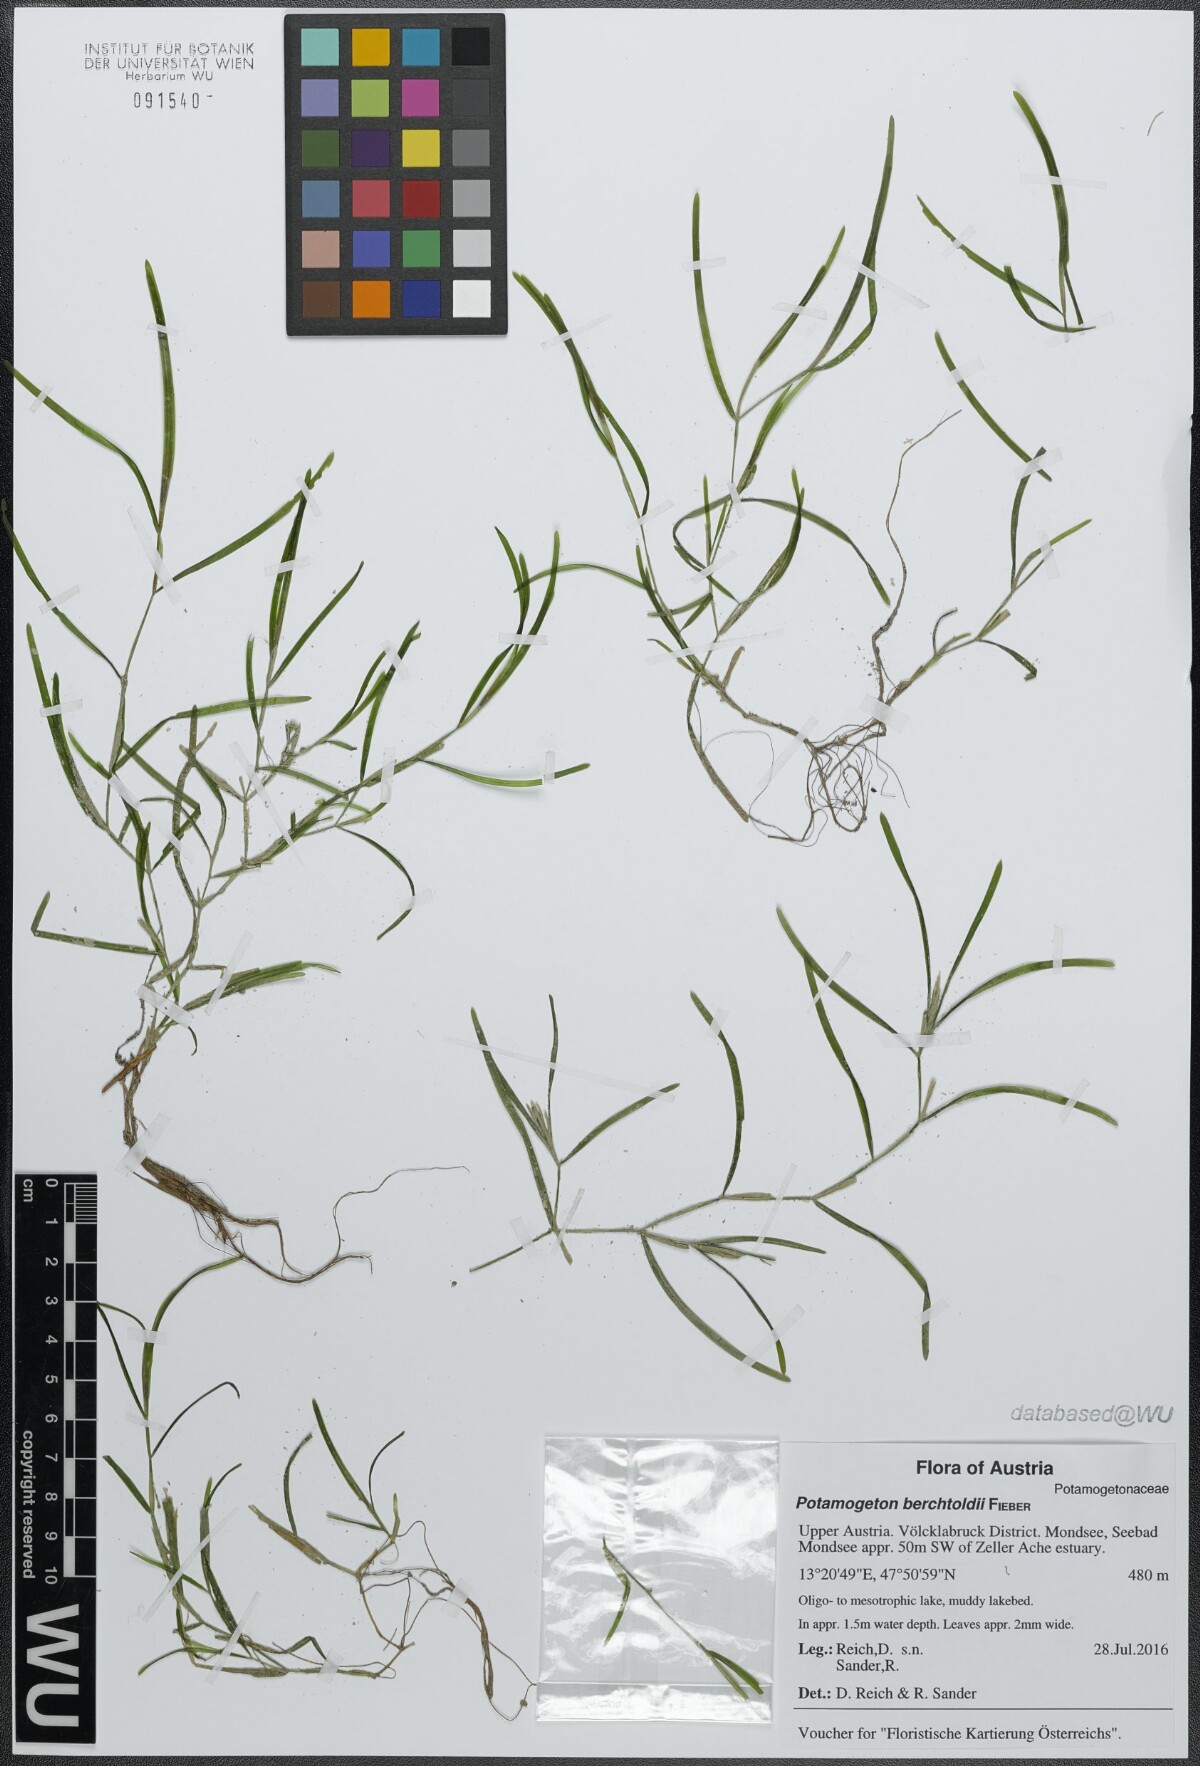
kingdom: Plantae
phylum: Tracheophyta
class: Liliopsida
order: Alismatales
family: Potamogetonaceae
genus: Potamogeton
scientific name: Potamogeton berchtoldii
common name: Small pondweed
